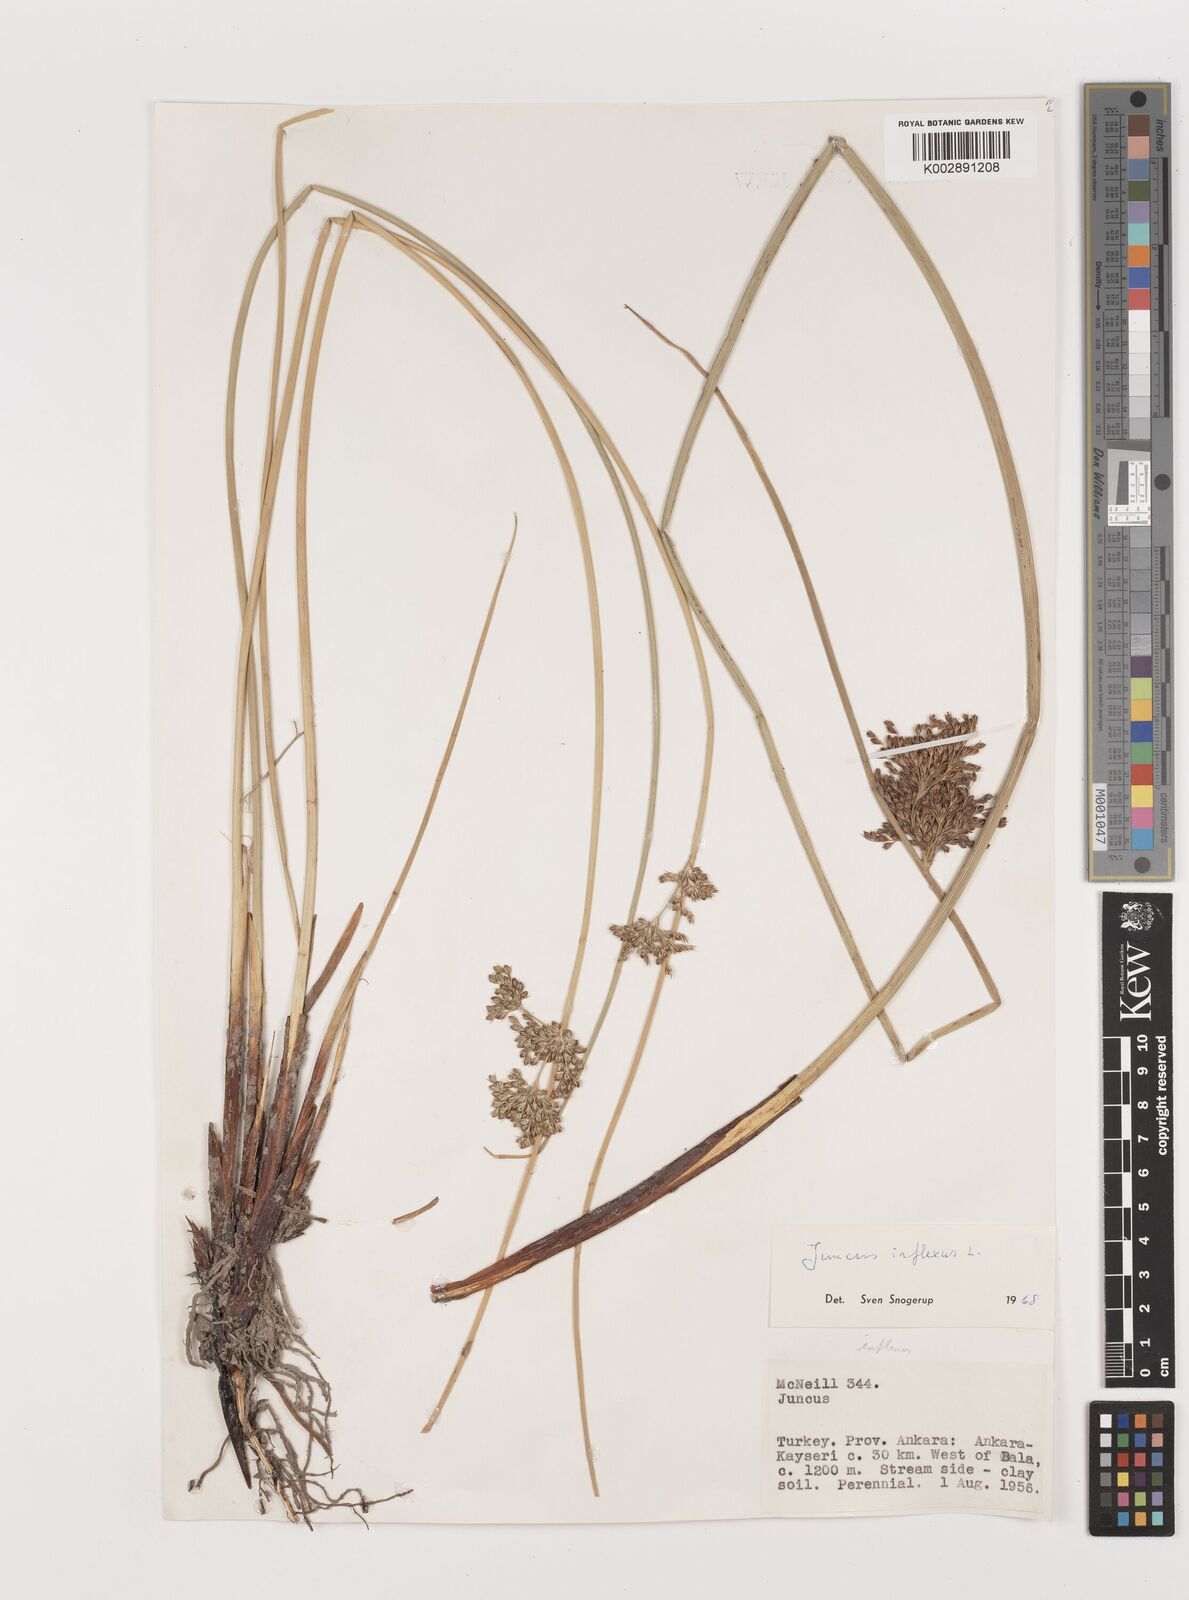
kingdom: Plantae
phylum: Tracheophyta
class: Liliopsida
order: Poales
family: Juncaceae
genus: Juncus
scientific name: Juncus inflexus
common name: Hard rush
